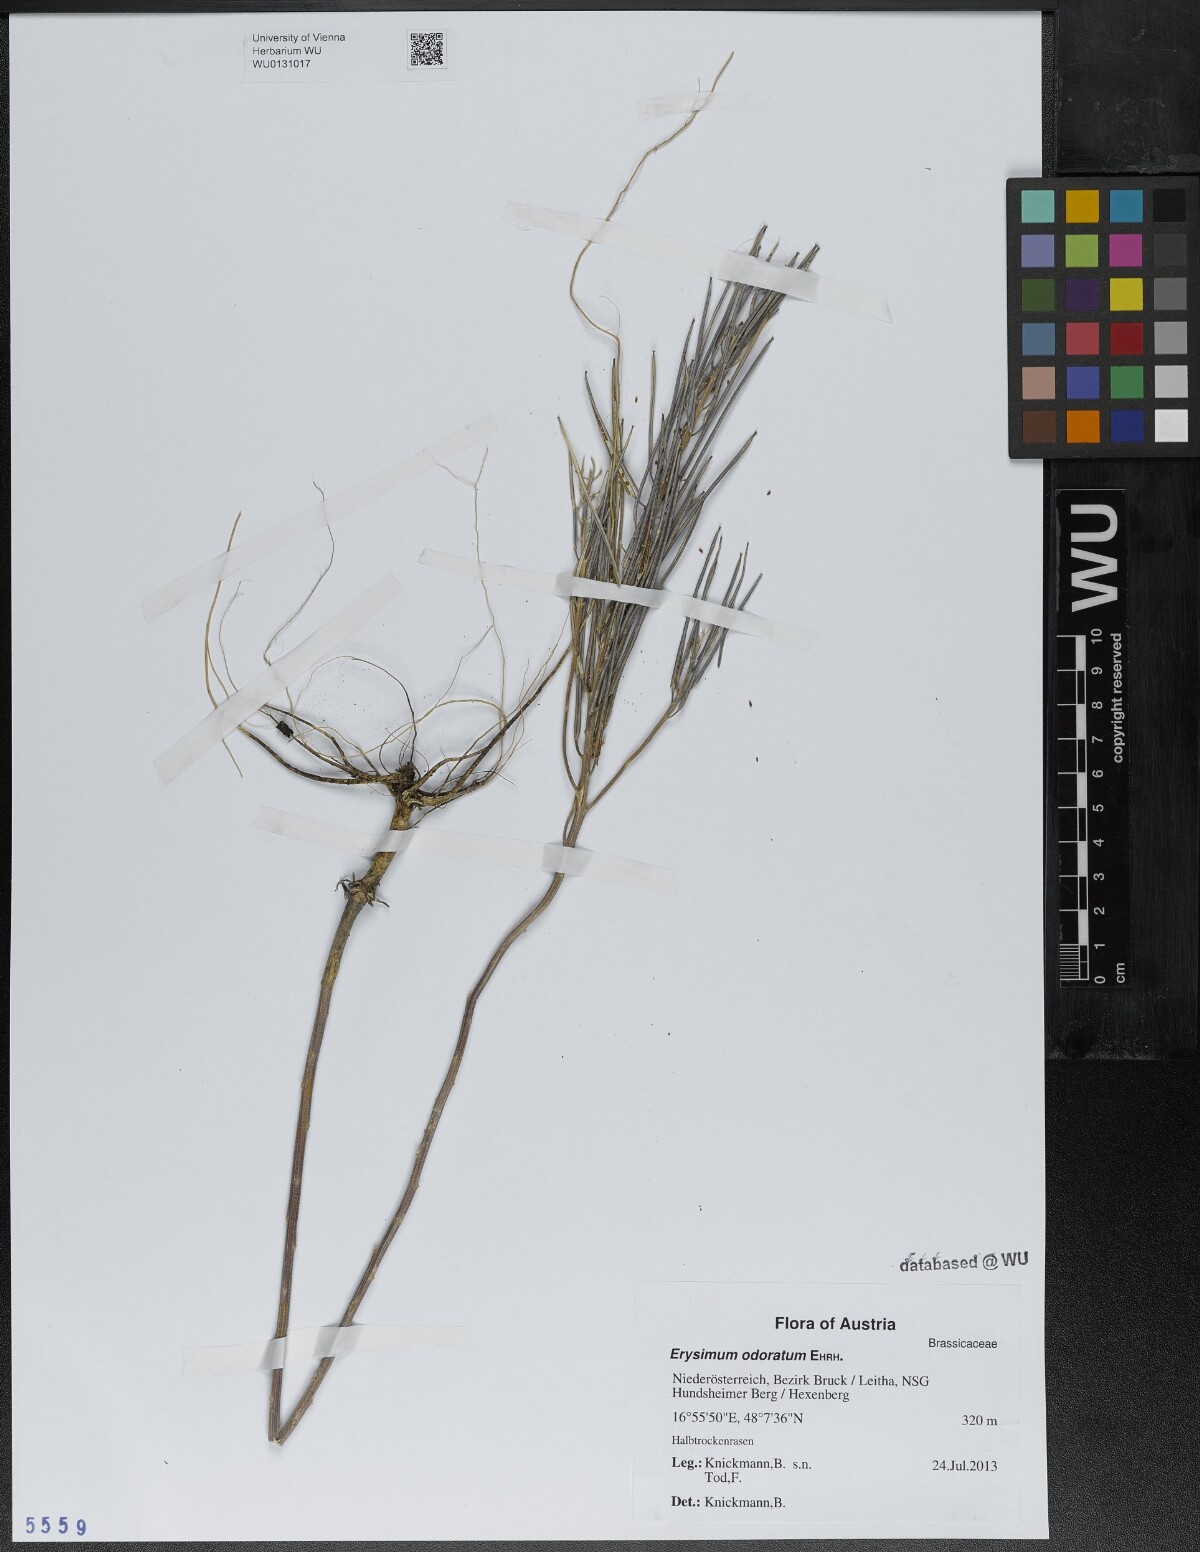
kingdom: Plantae
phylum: Tracheophyta
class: Magnoliopsida
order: Brassicales
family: Brassicaceae
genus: Erysimum
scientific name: Erysimum odoratum
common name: Smelly wallflower
